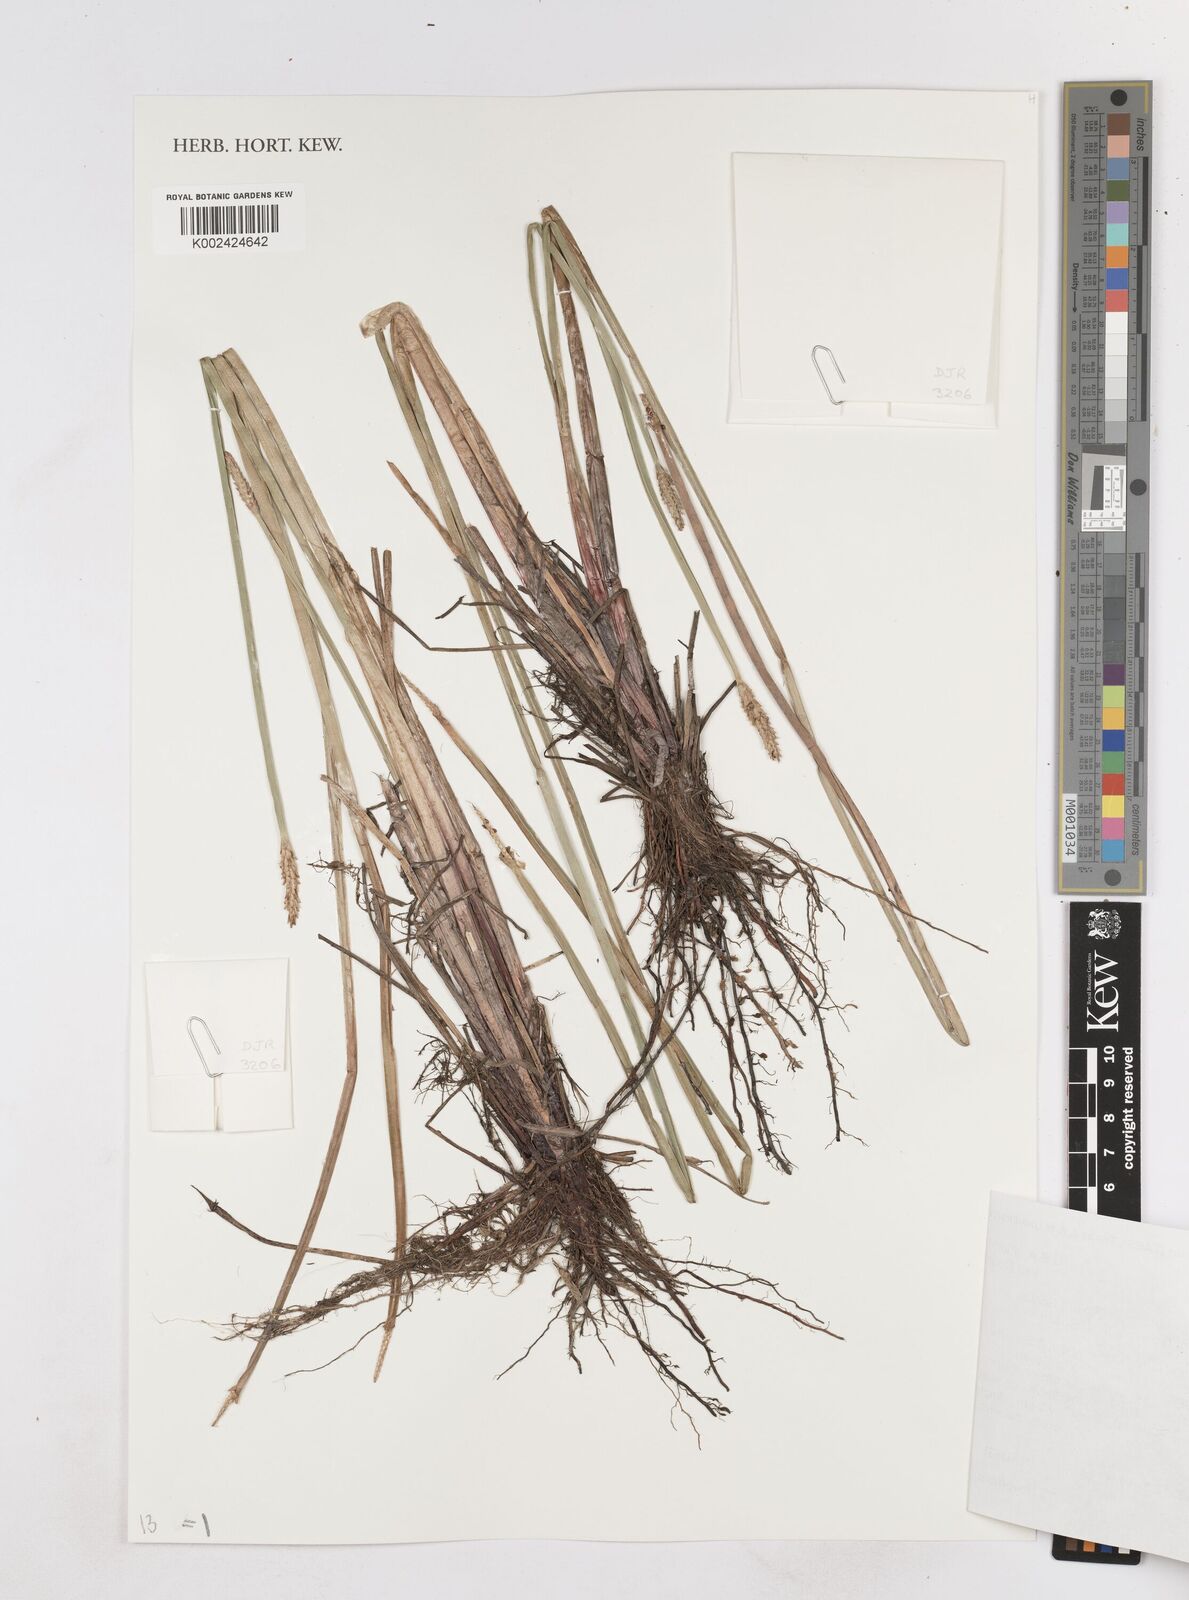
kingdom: Plantae
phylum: Tracheophyta
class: Liliopsida
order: Poales
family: Cyperaceae
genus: Eleocharis
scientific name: Eleocharis acutangula
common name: Acute spikerush
